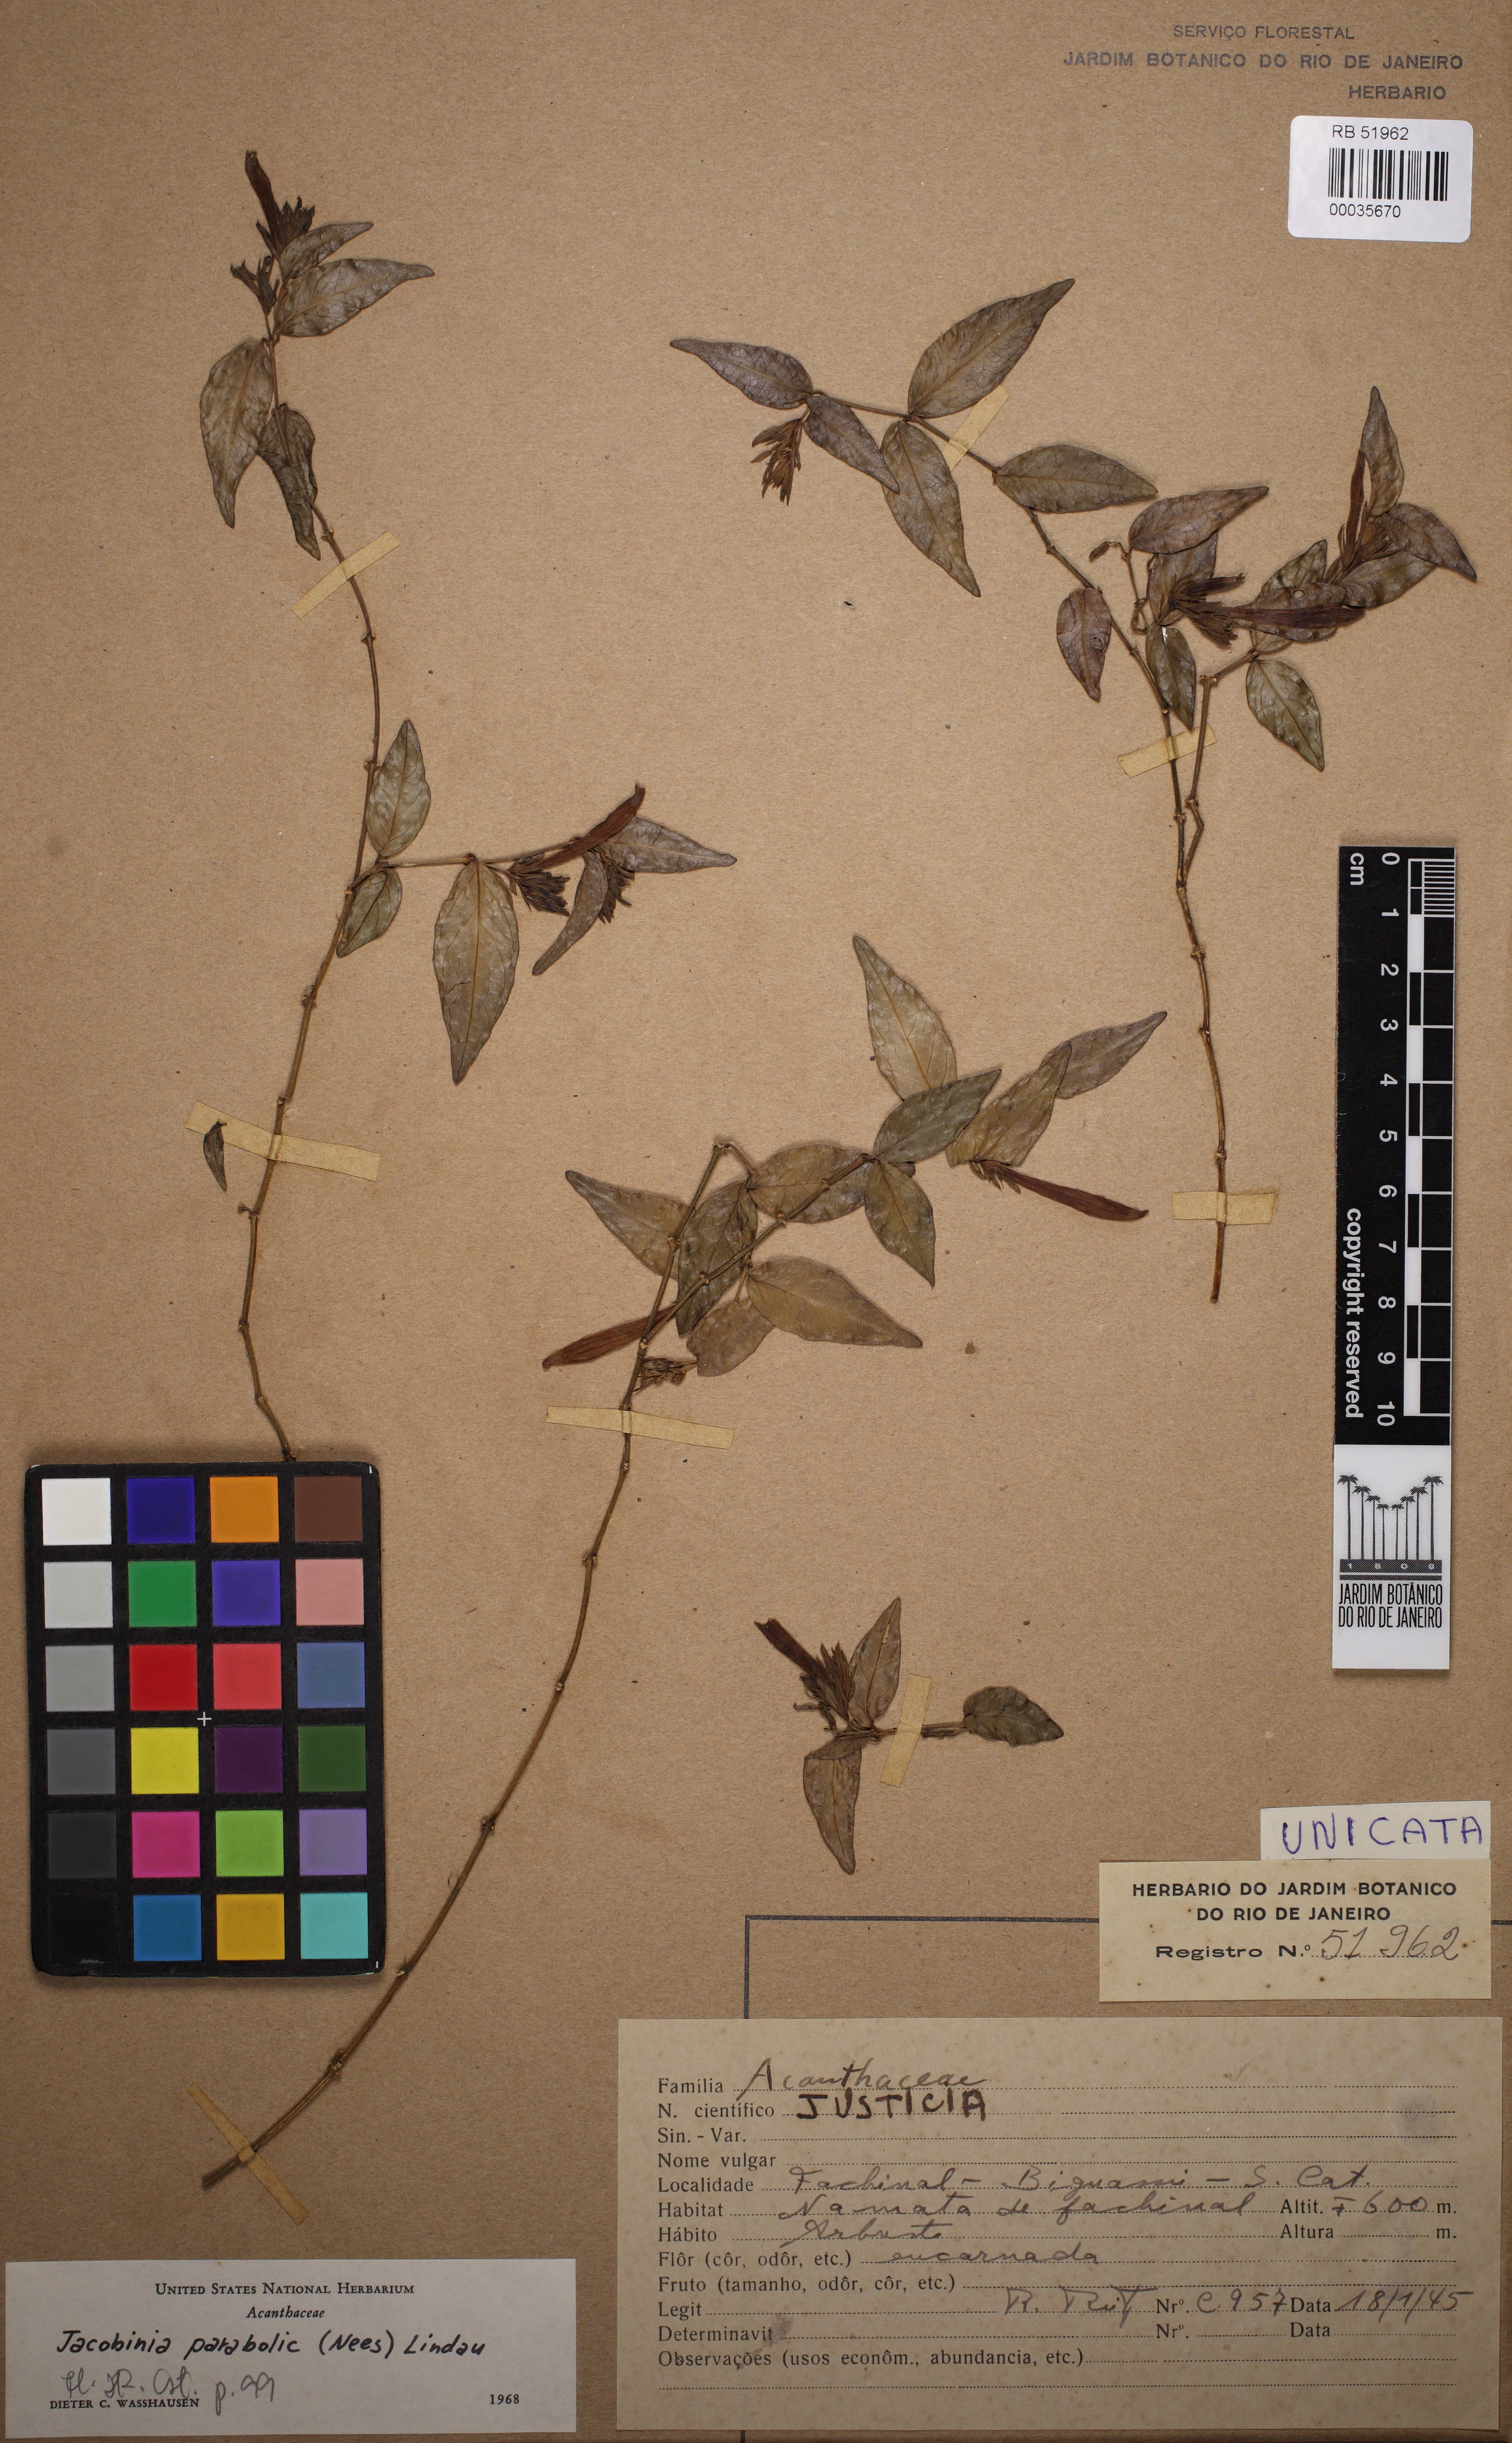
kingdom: Plantae
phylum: Tracheophyta
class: Magnoliopsida
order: Lamiales
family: Acanthaceae
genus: Justicia
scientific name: Justicia parabolica
